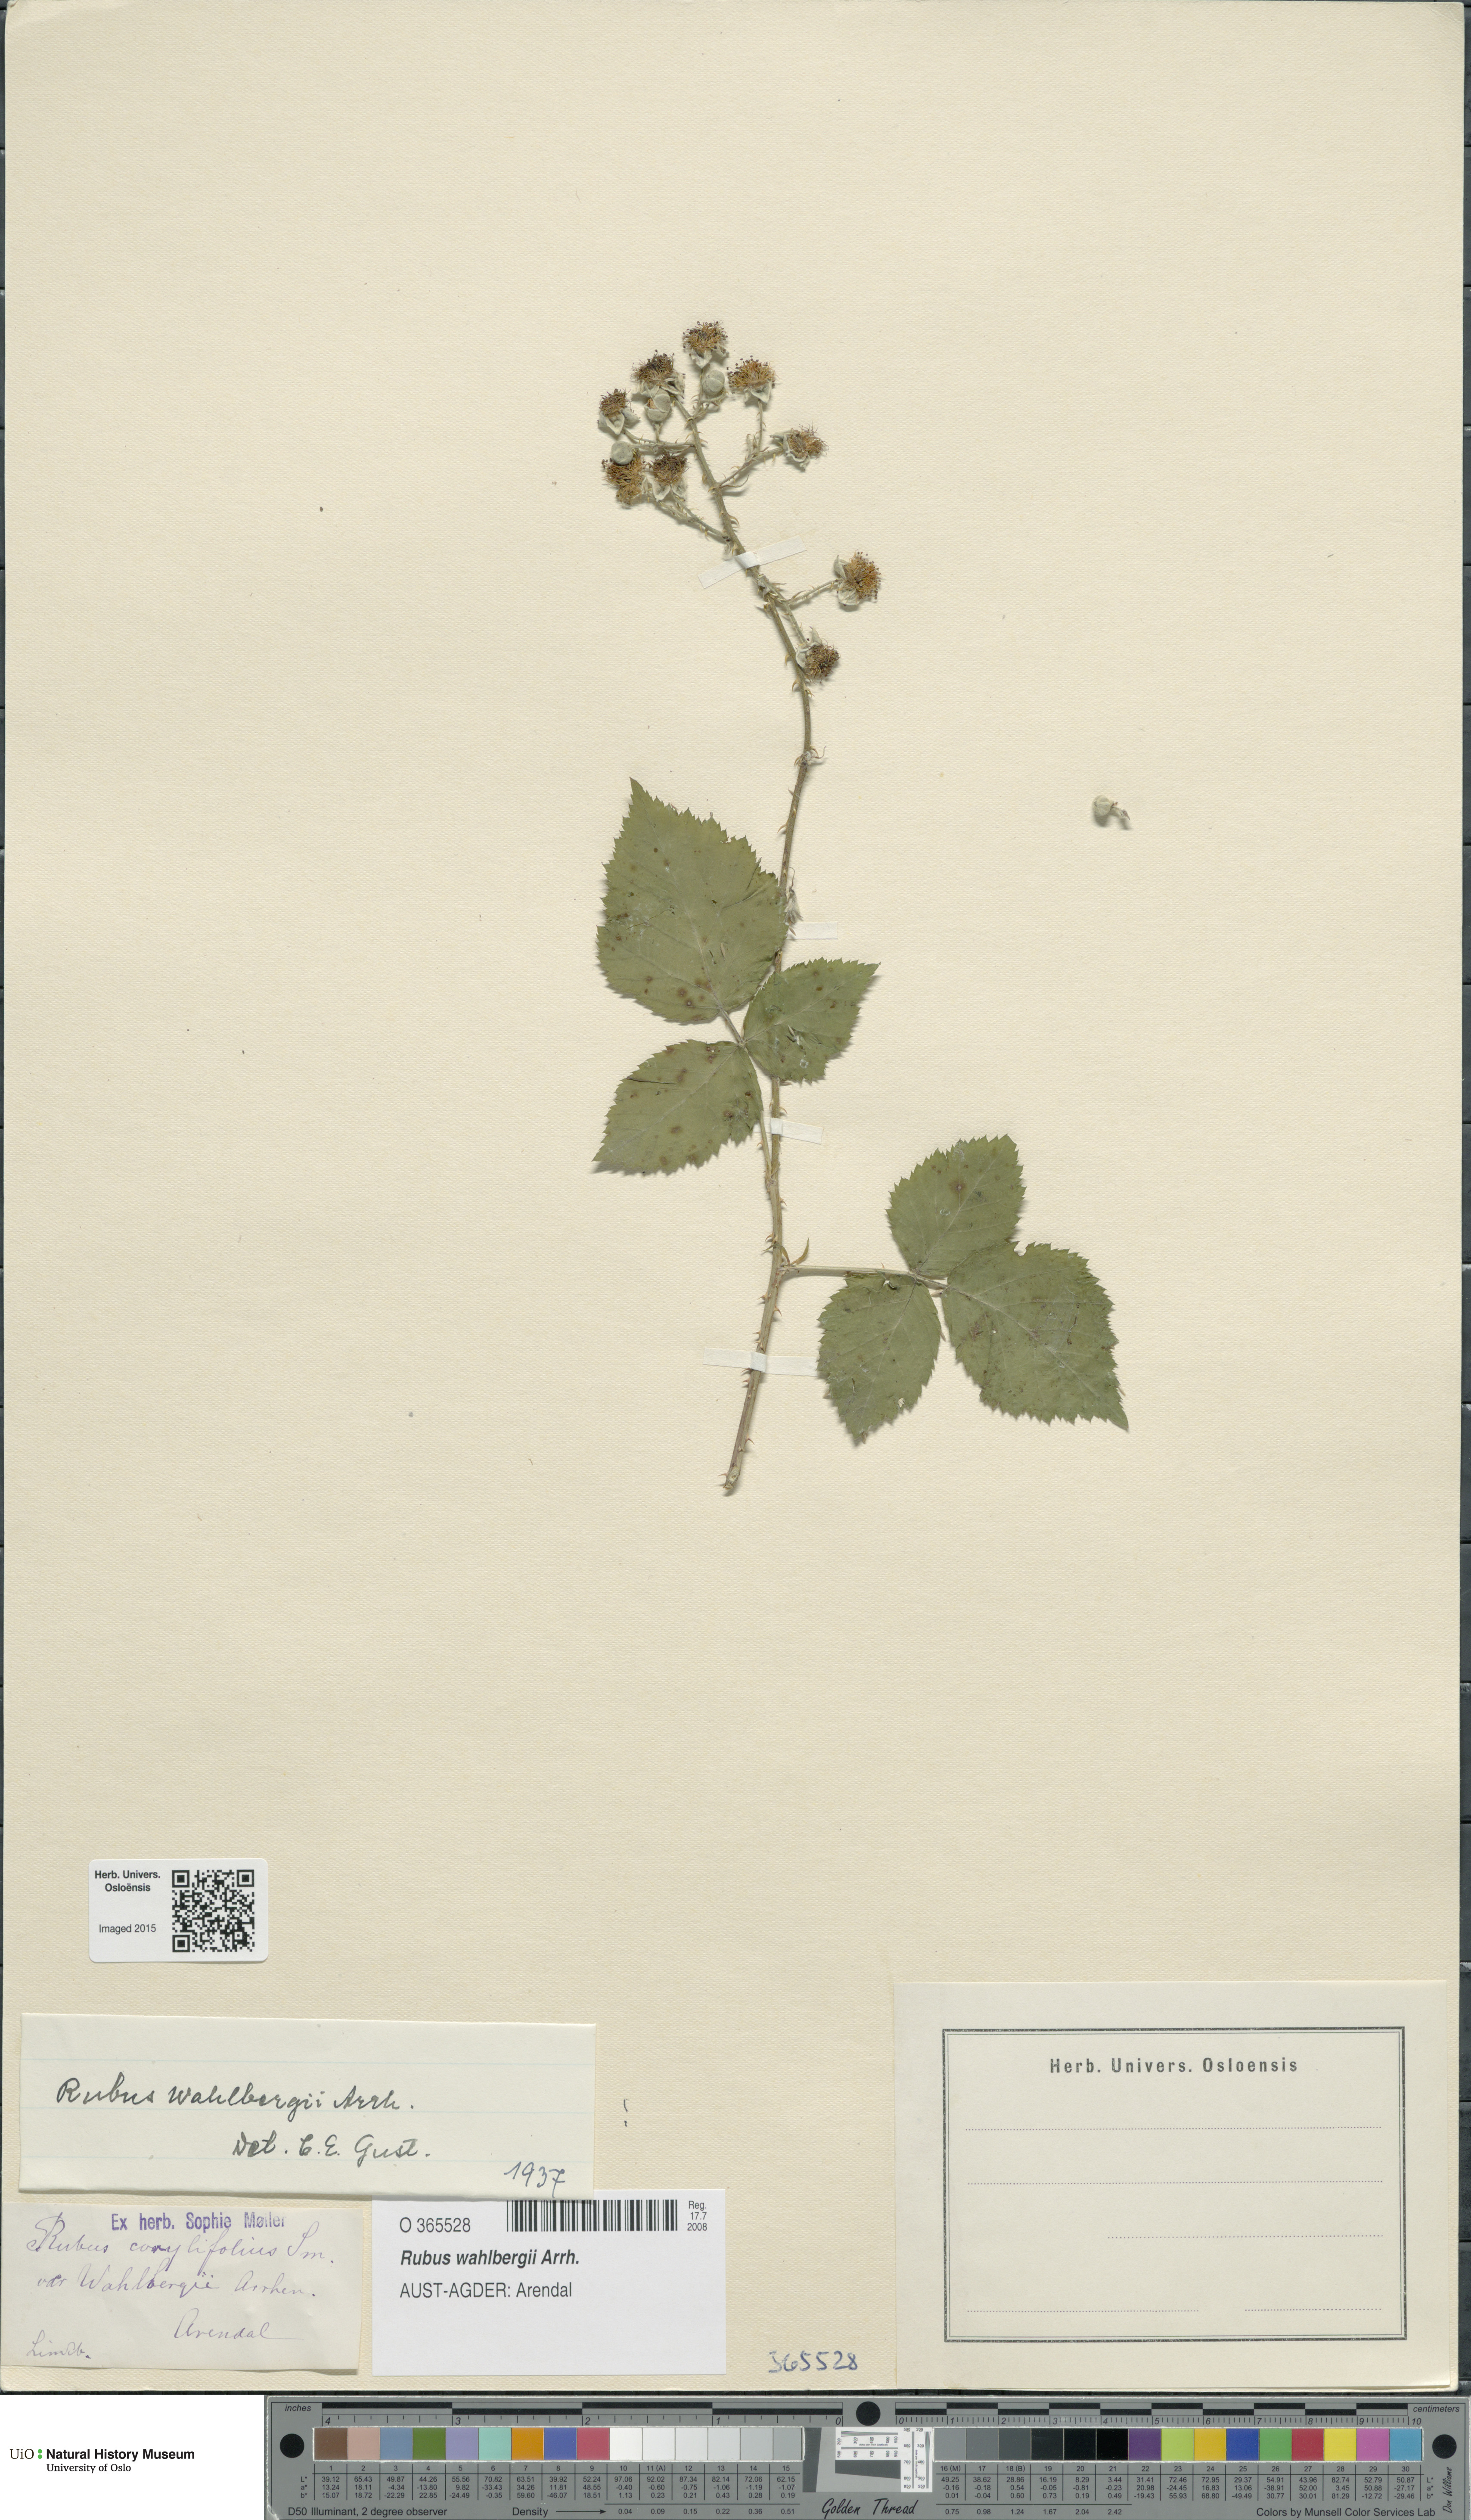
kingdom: Plantae
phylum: Tracheophyta
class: Magnoliopsida
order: Rosales
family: Rosaceae
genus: Rubus
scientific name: Rubus wahlbergii
